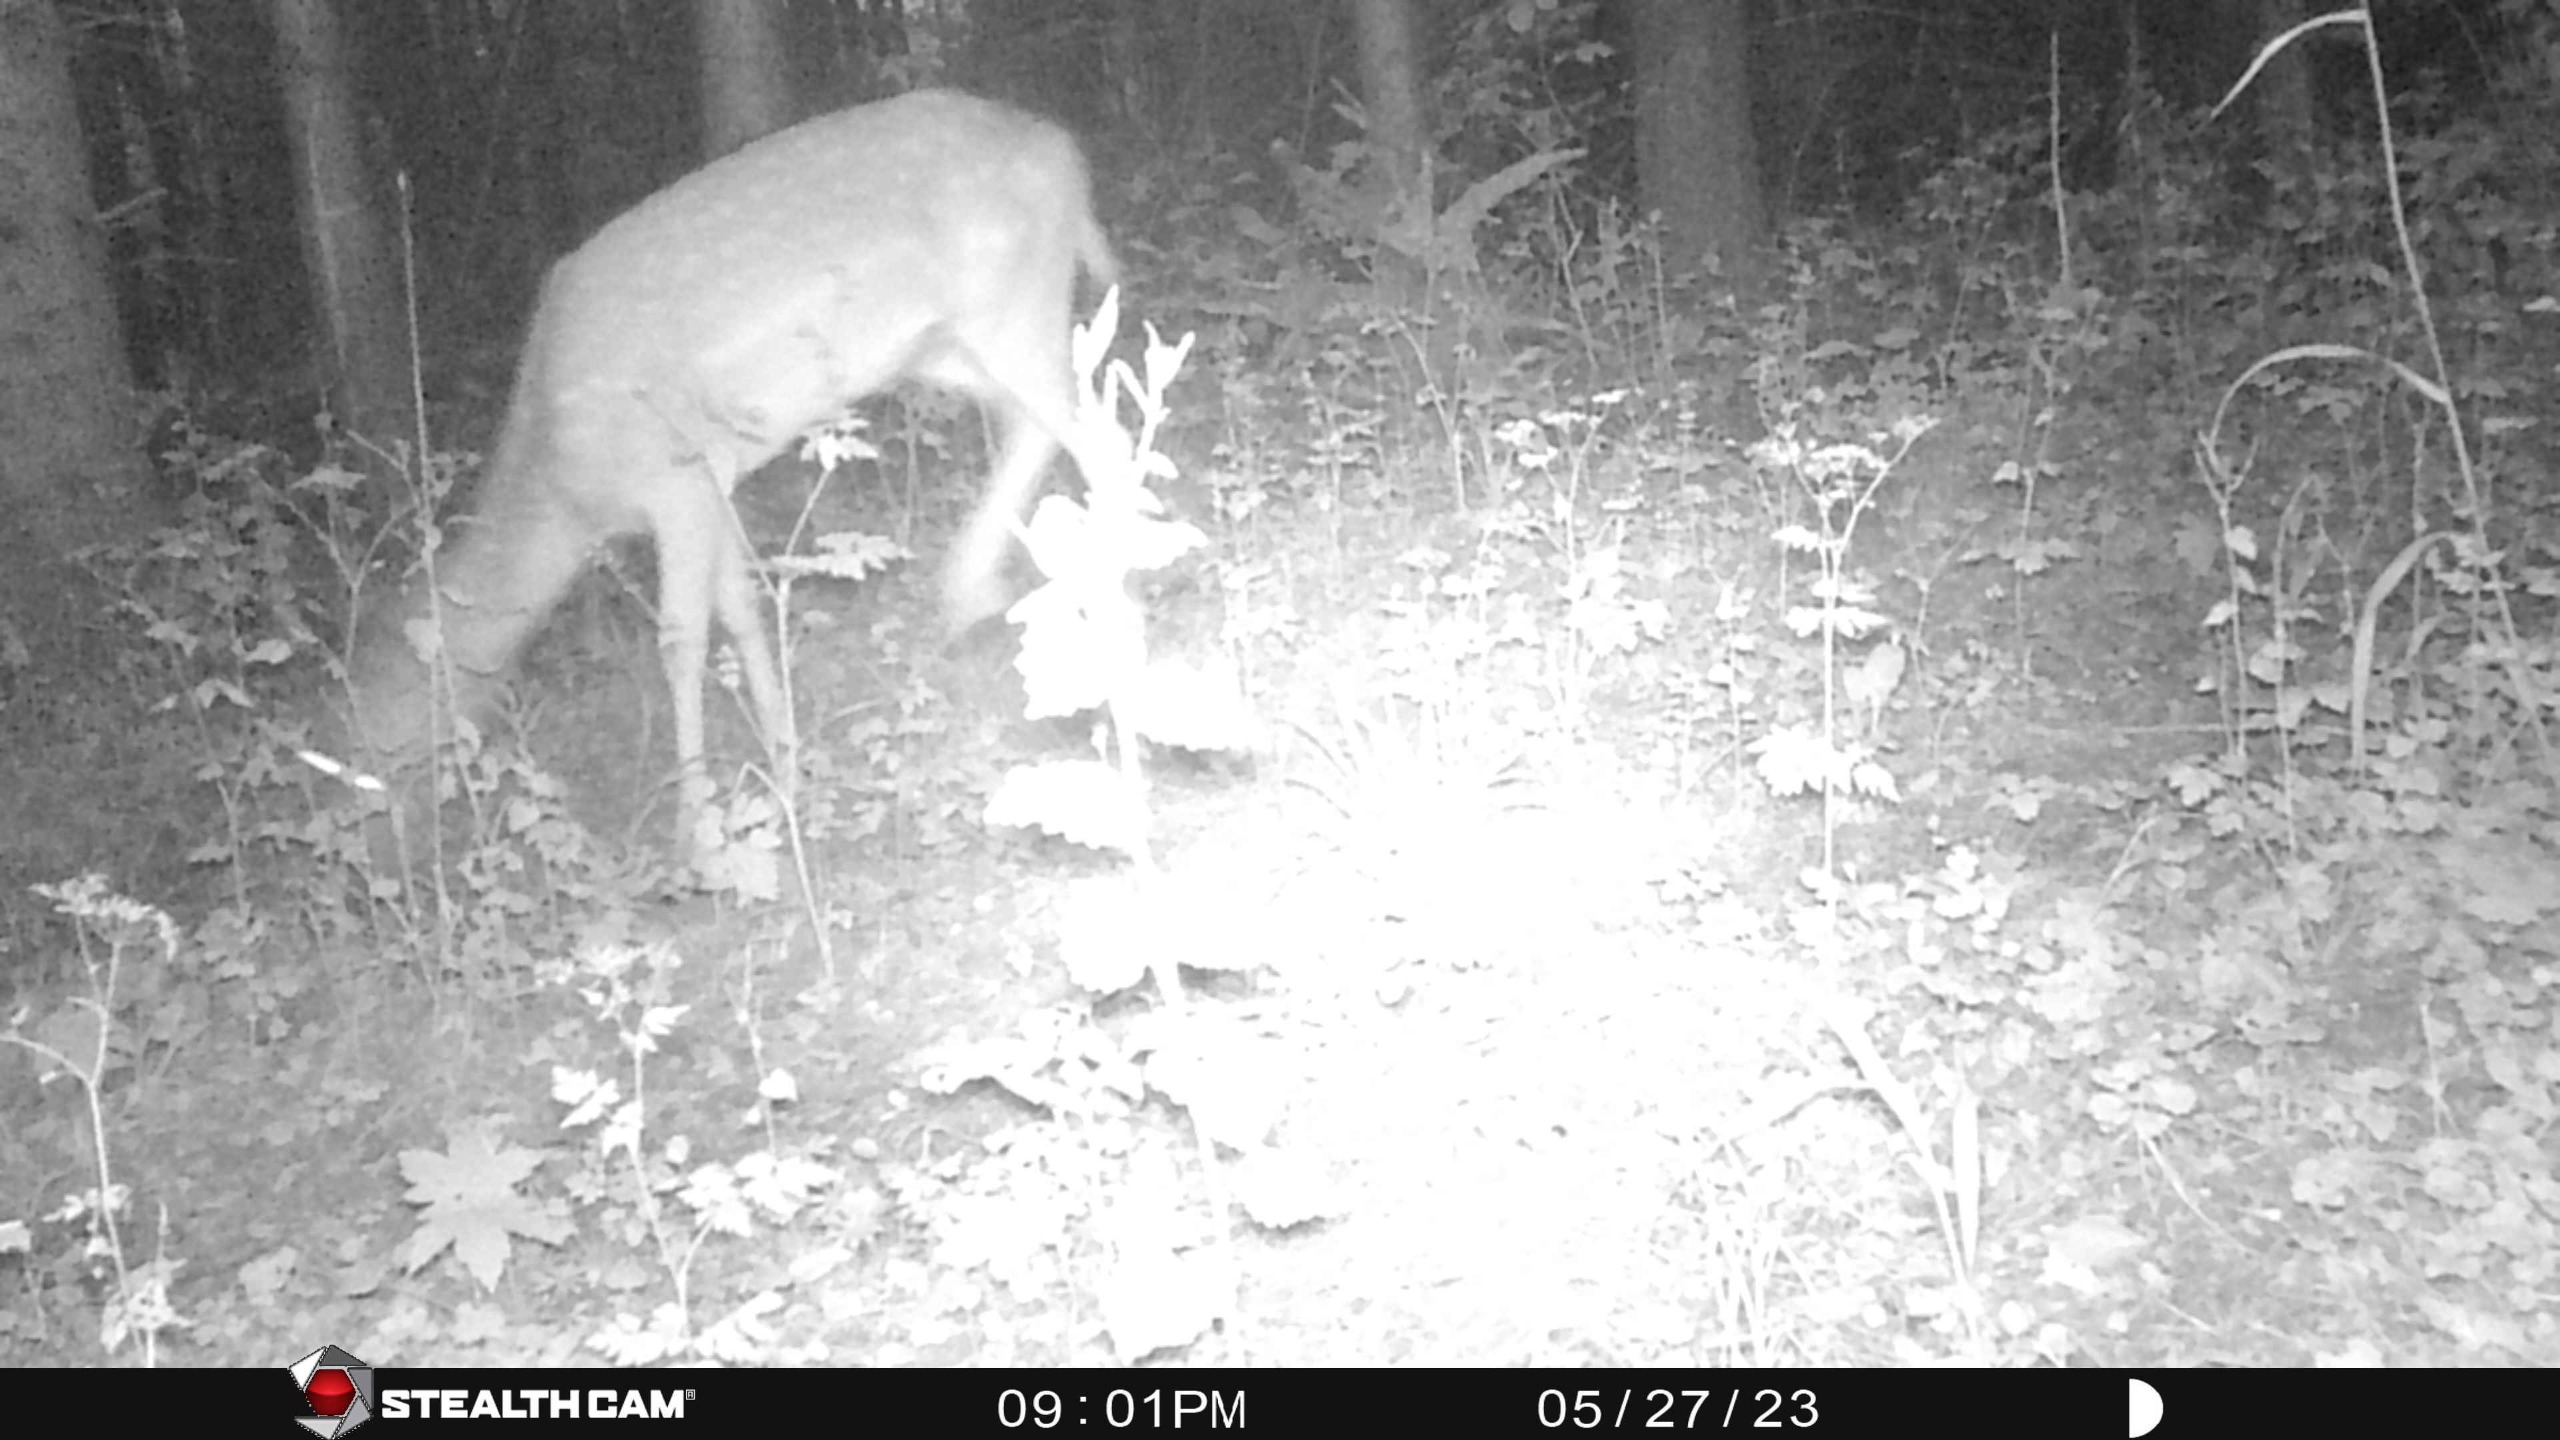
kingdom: Animalia
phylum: Chordata
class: Mammalia
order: Artiodactyla
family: Cervidae
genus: Dama
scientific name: Dama dama
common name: Dådyr
